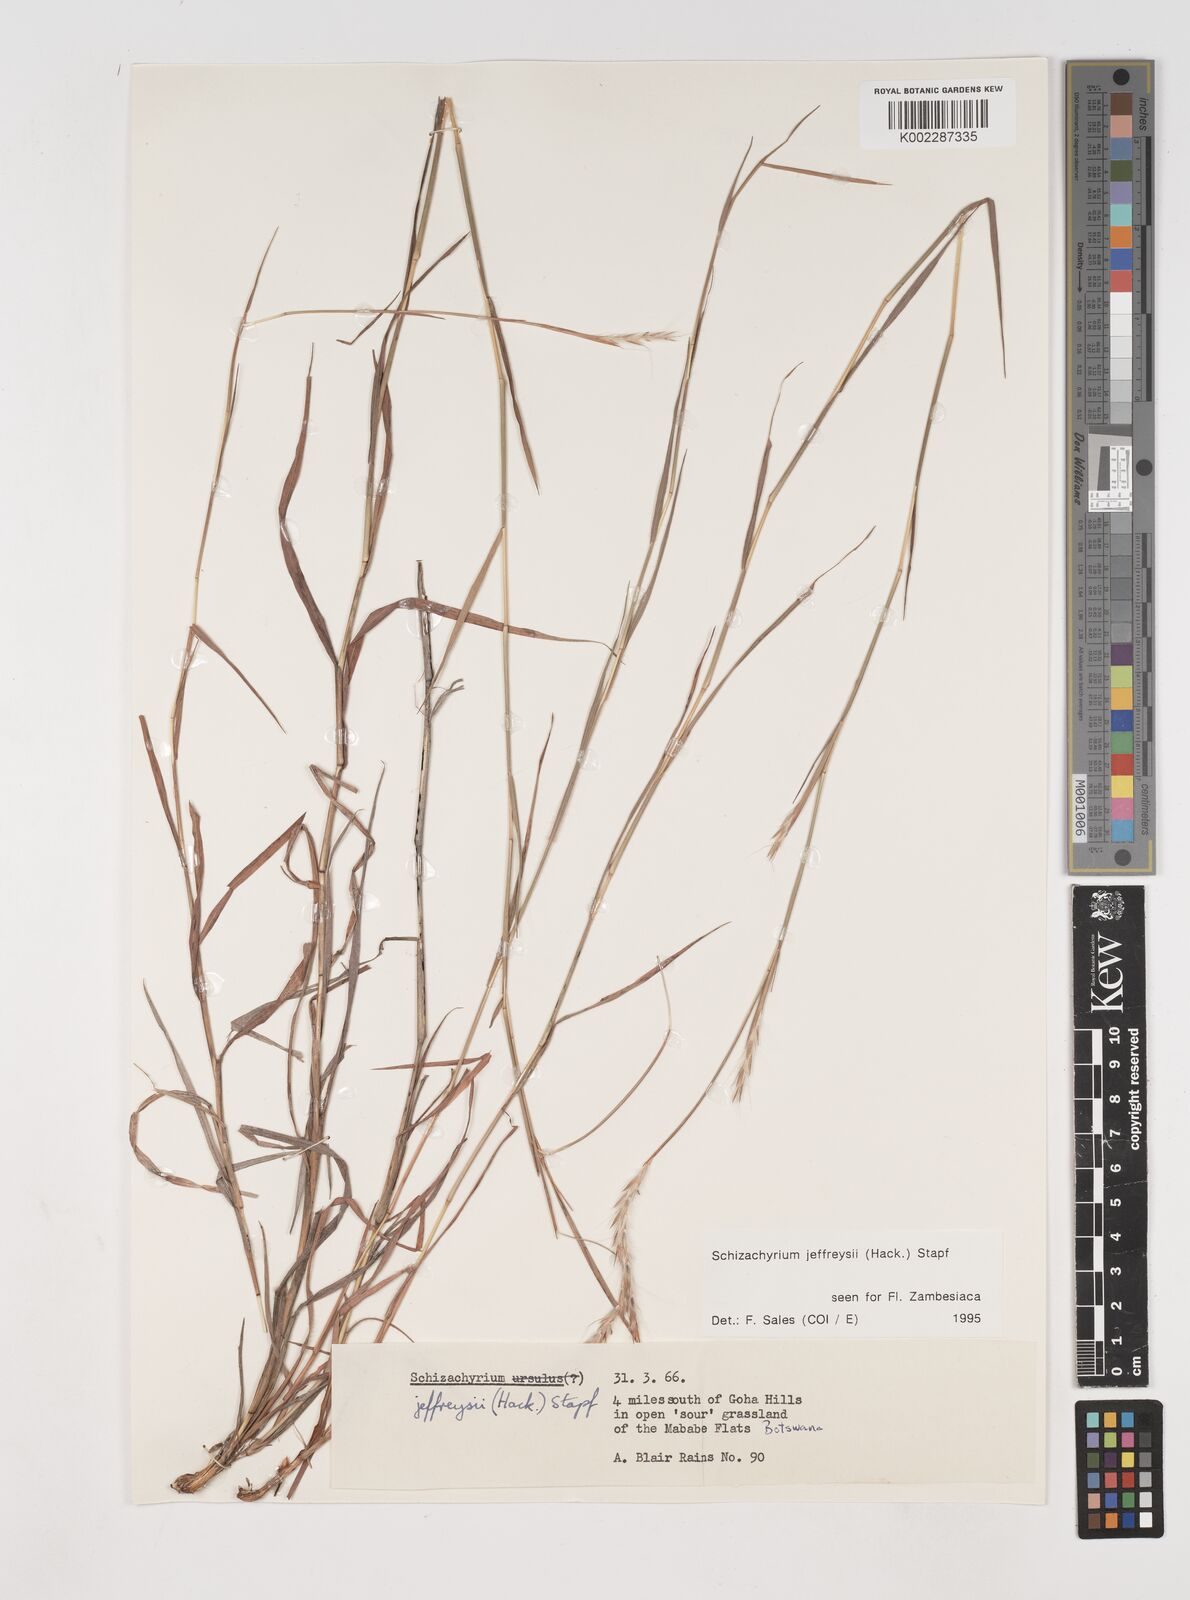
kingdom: Plantae
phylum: Tracheophyta
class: Liliopsida
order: Poales
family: Poaceae
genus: Schizachyrium
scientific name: Schizachyrium jeffreysii
